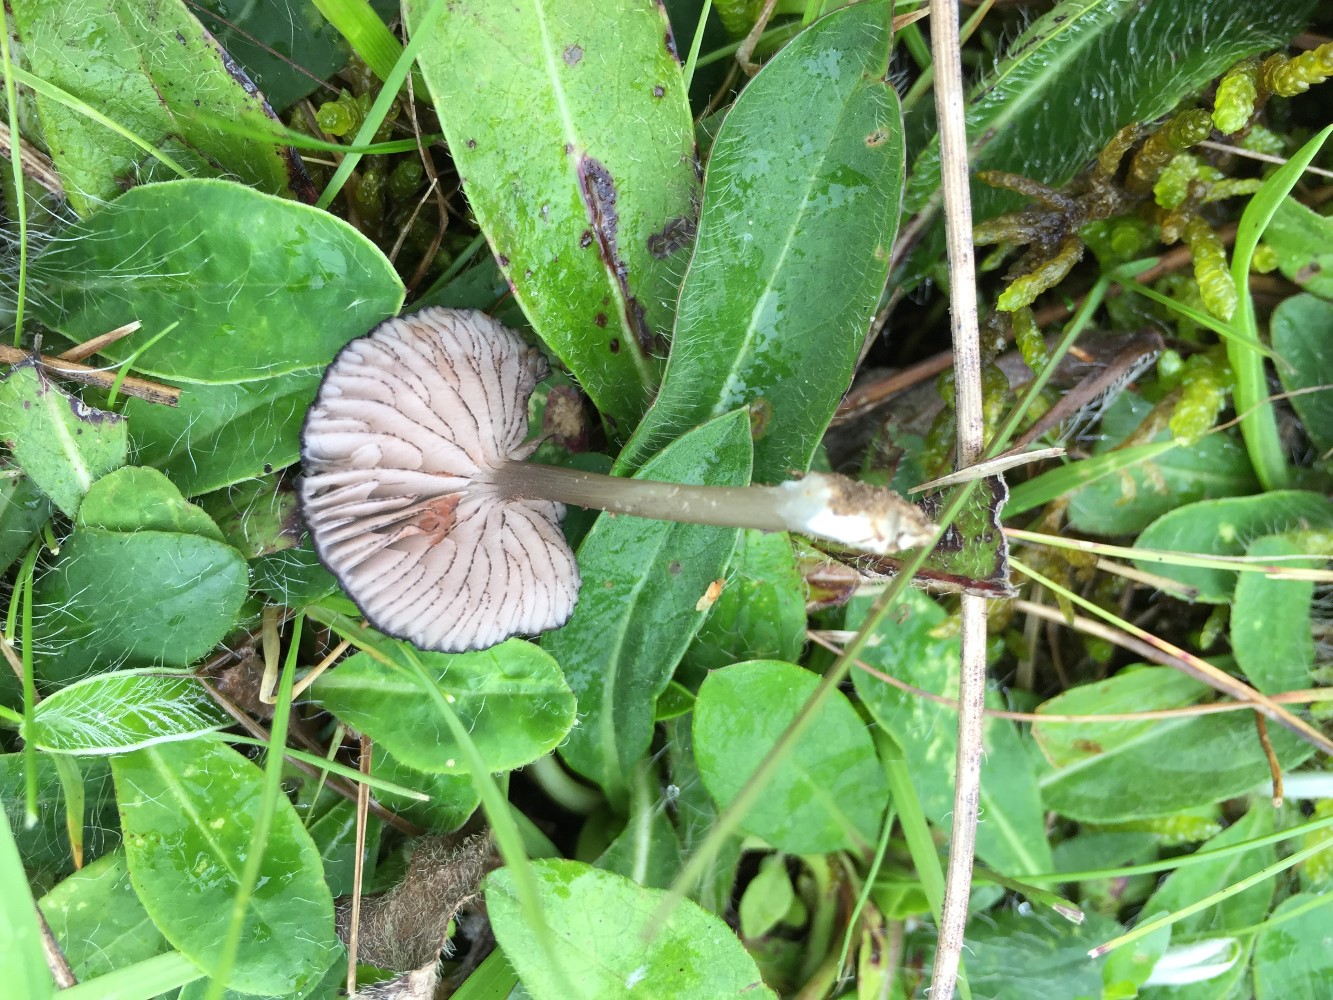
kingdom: Fungi
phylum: Basidiomycota
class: Agaricomycetes
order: Agaricales
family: Entolomataceae
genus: Entoloma
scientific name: Entoloma
